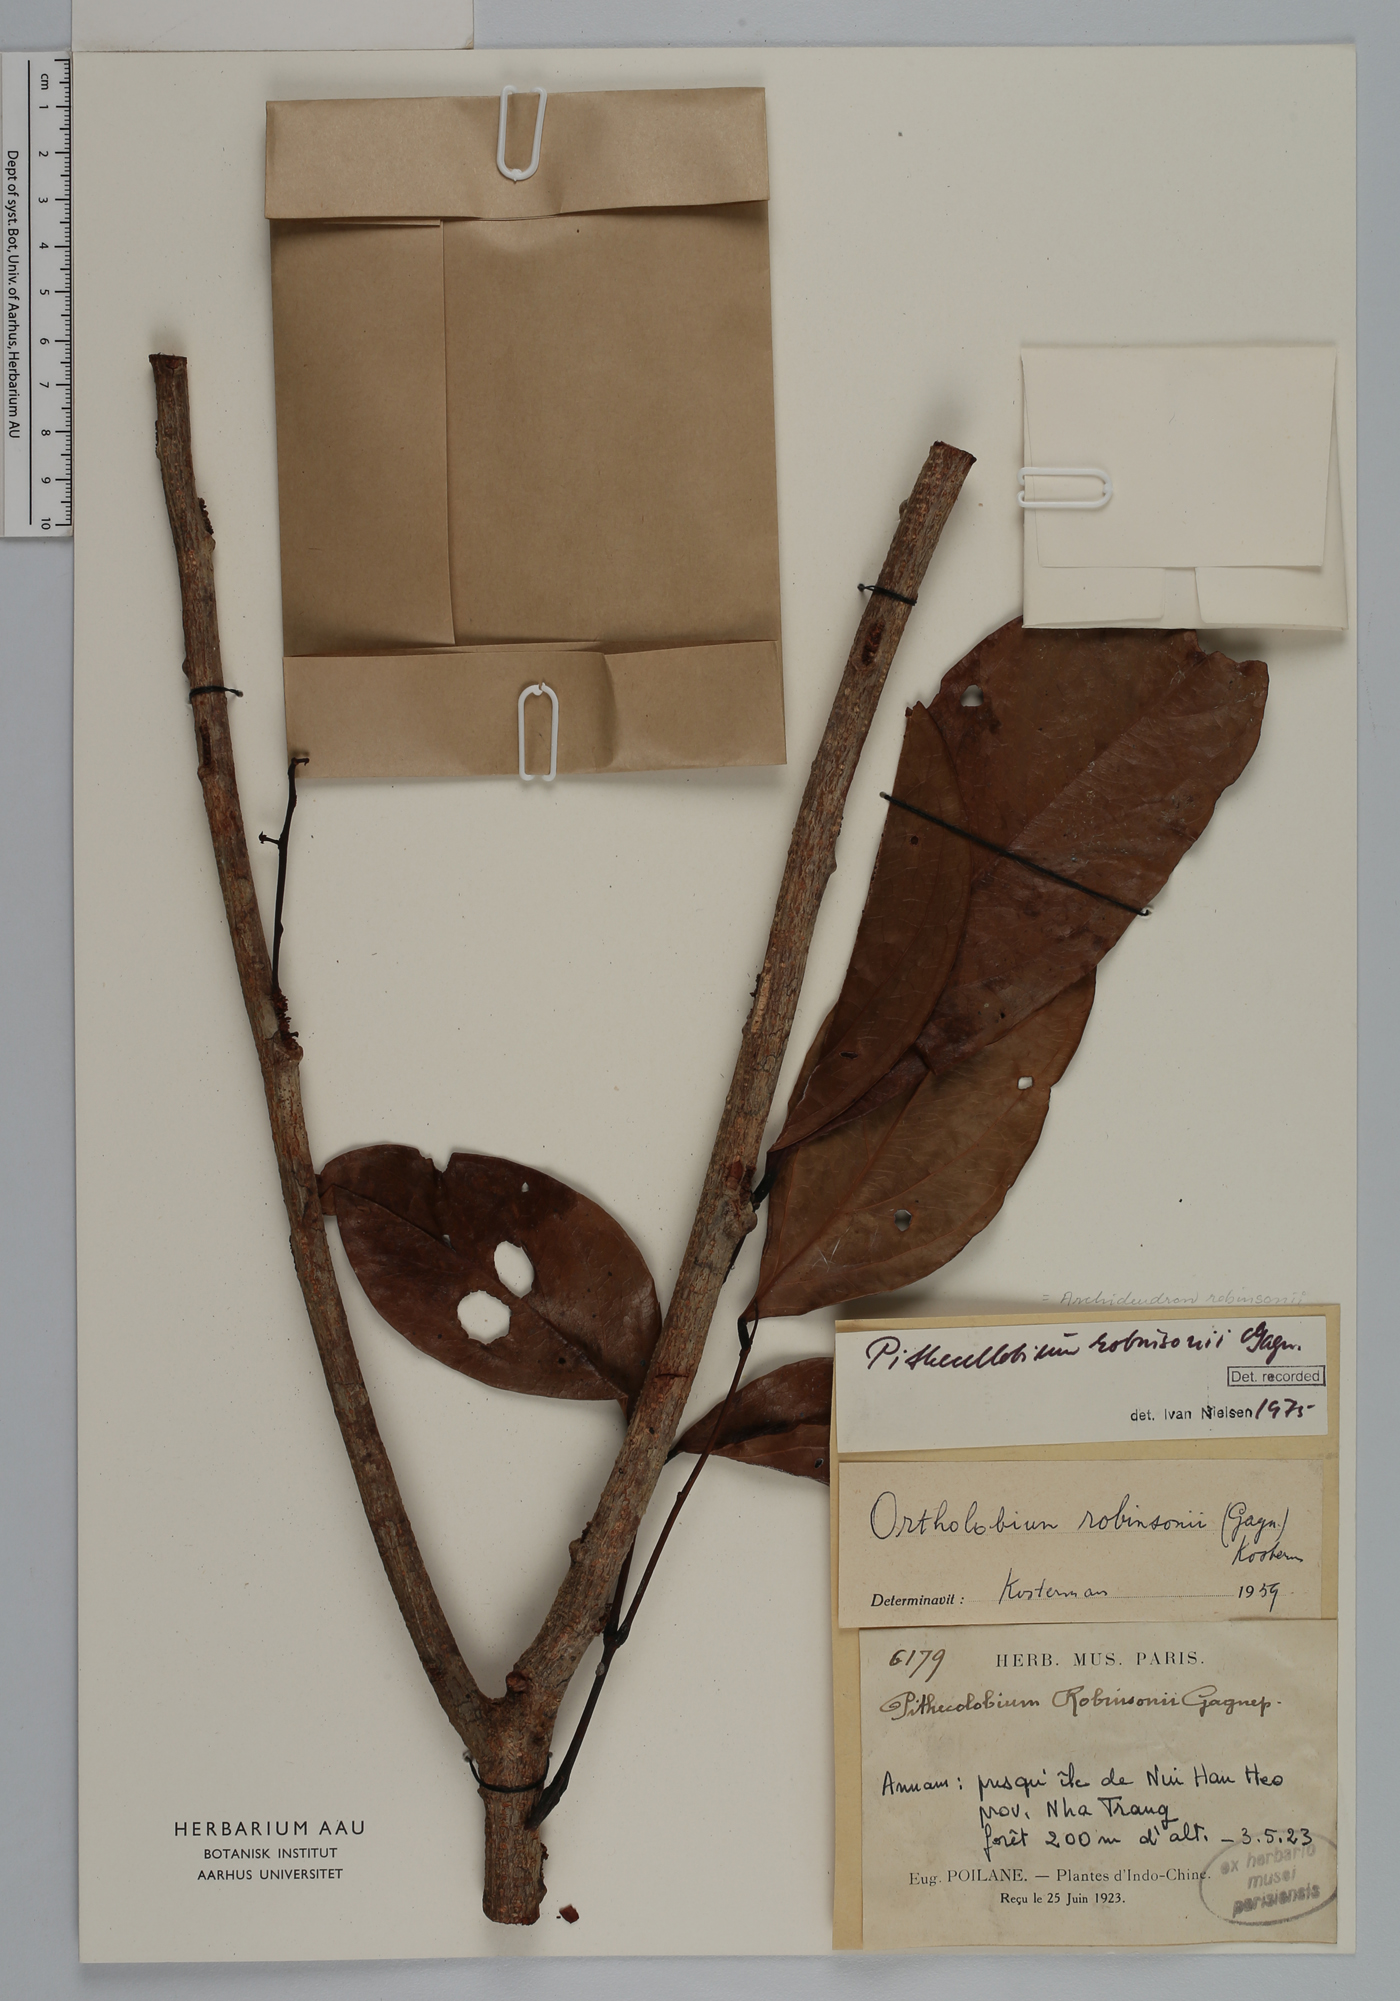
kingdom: Plantae
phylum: Tracheophyta
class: Magnoliopsida
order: Fabales
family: Fabaceae
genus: Archidendron
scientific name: Archidendron robinsonii
